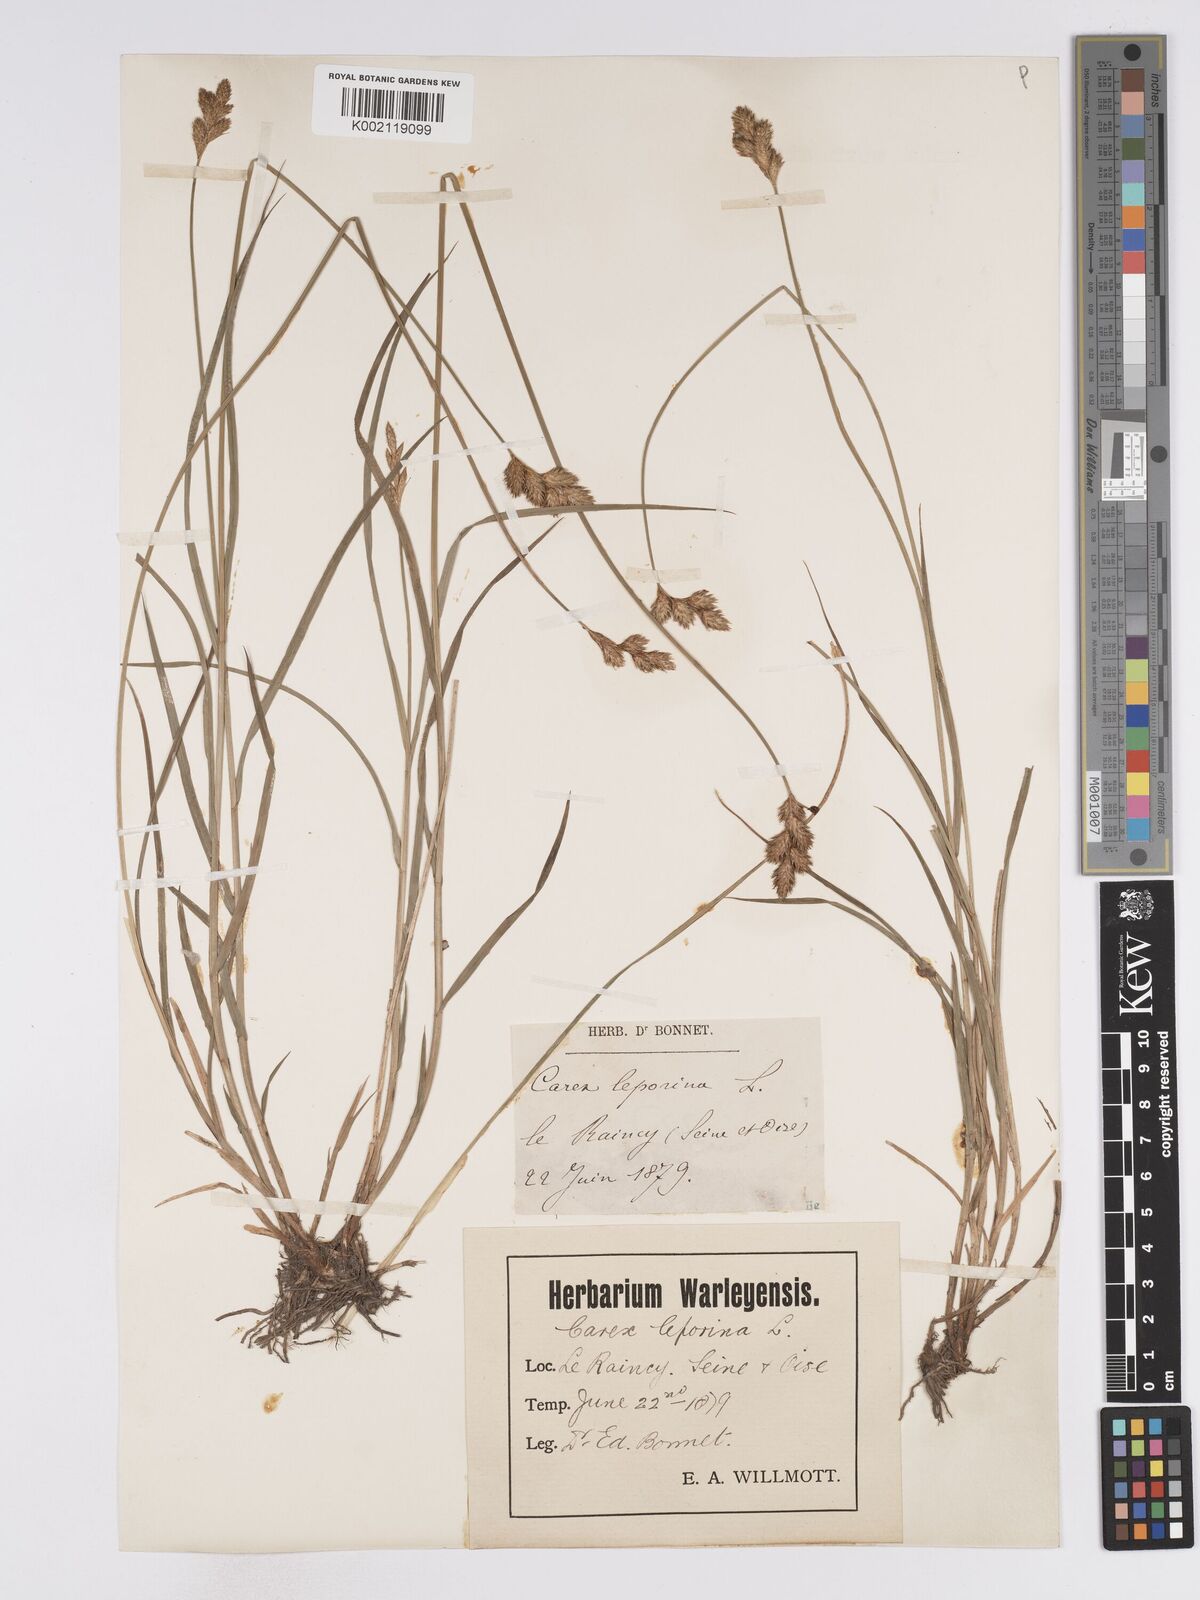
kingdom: Plantae
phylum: Tracheophyta
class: Liliopsida
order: Poales
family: Cyperaceae
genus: Carex
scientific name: Carex leporina
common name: Oval sedge
